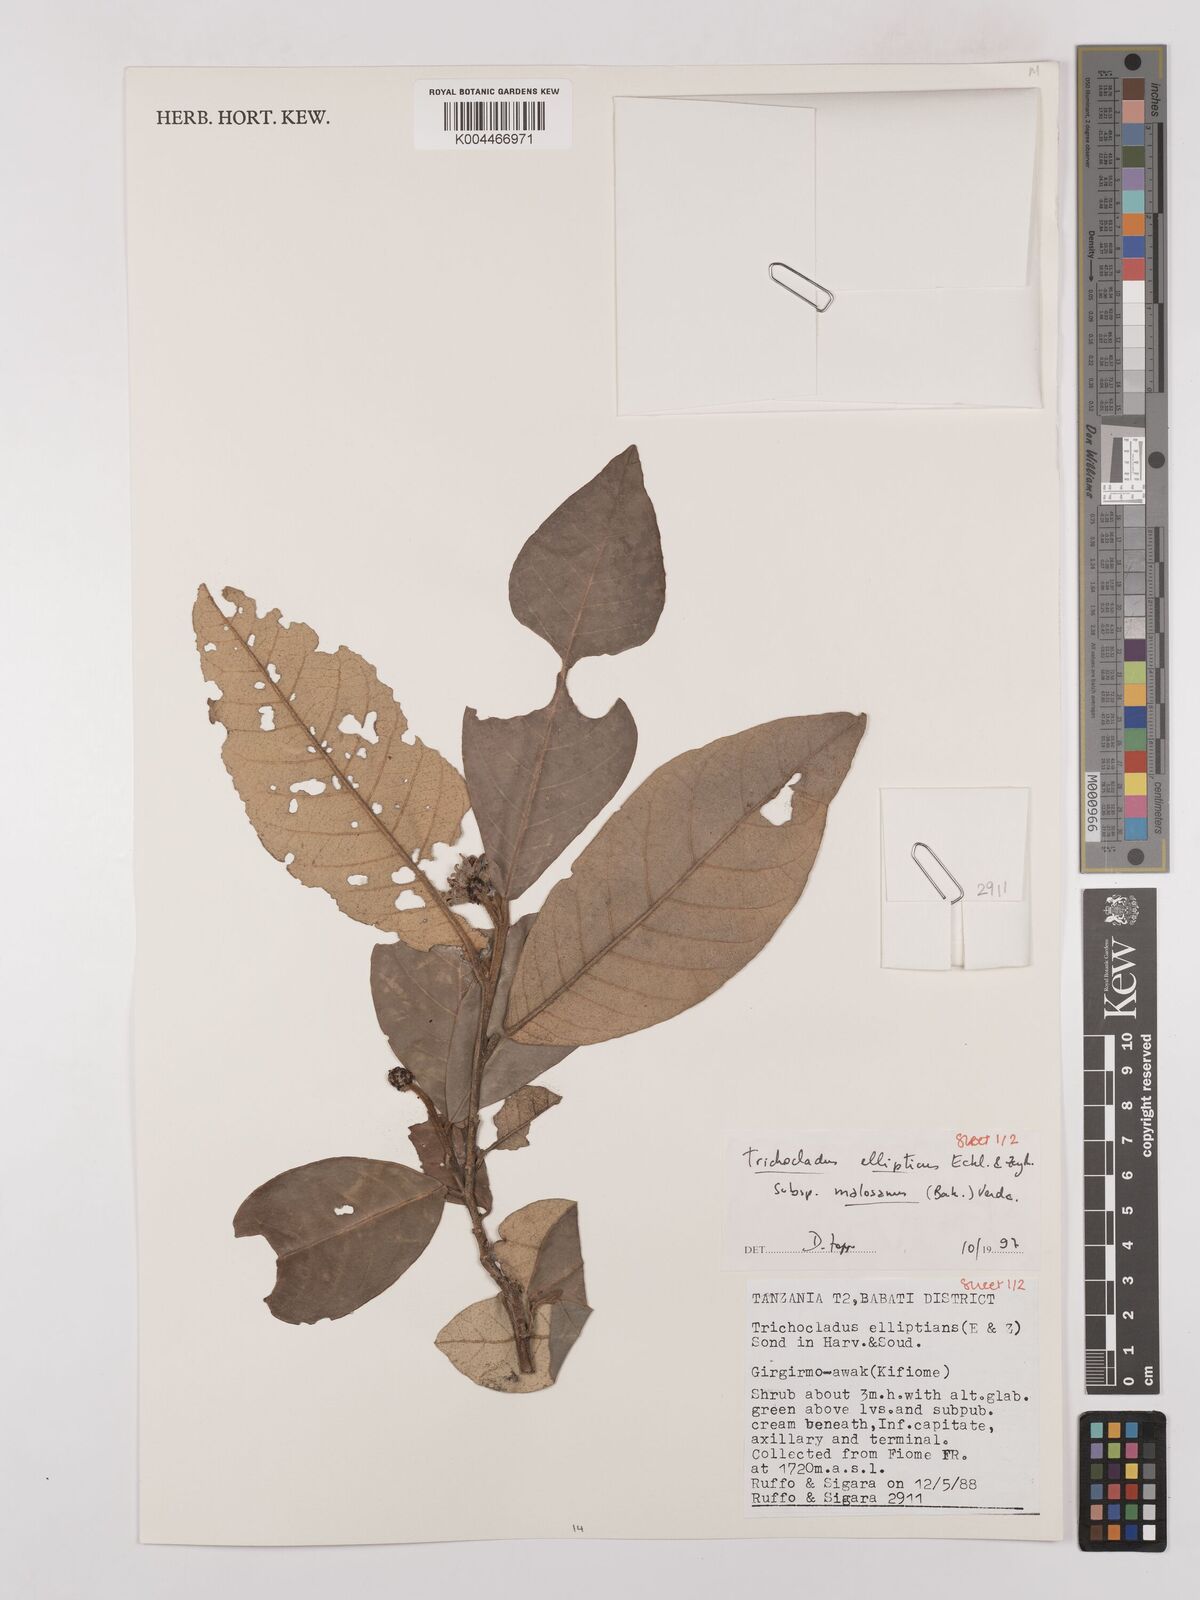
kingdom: Plantae
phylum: Tracheophyta
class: Magnoliopsida
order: Saxifragales
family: Hamamelidaceae
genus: Trichocladus
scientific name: Trichocladus ellipticus
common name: White witch-hazel
